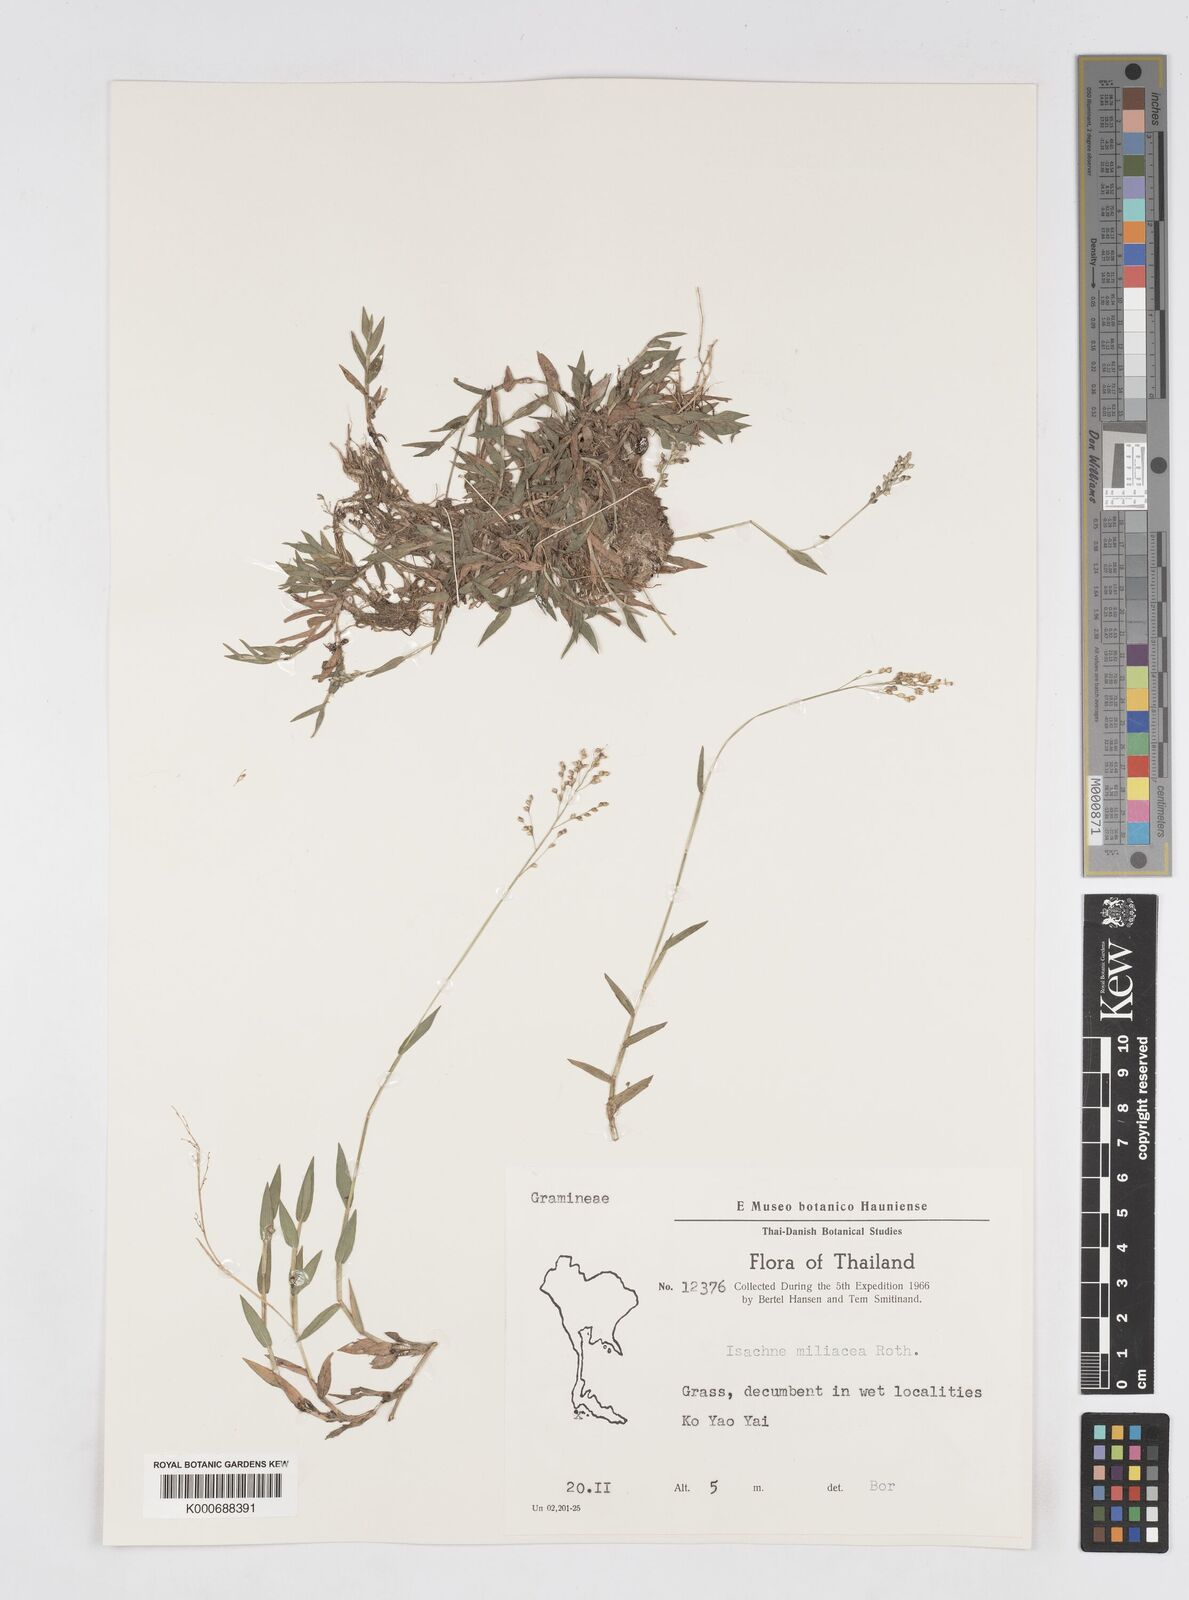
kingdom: Plantae
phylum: Tracheophyta
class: Liliopsida
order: Poales
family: Poaceae
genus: Isachne
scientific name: Isachne globosa
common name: Swamp millet
